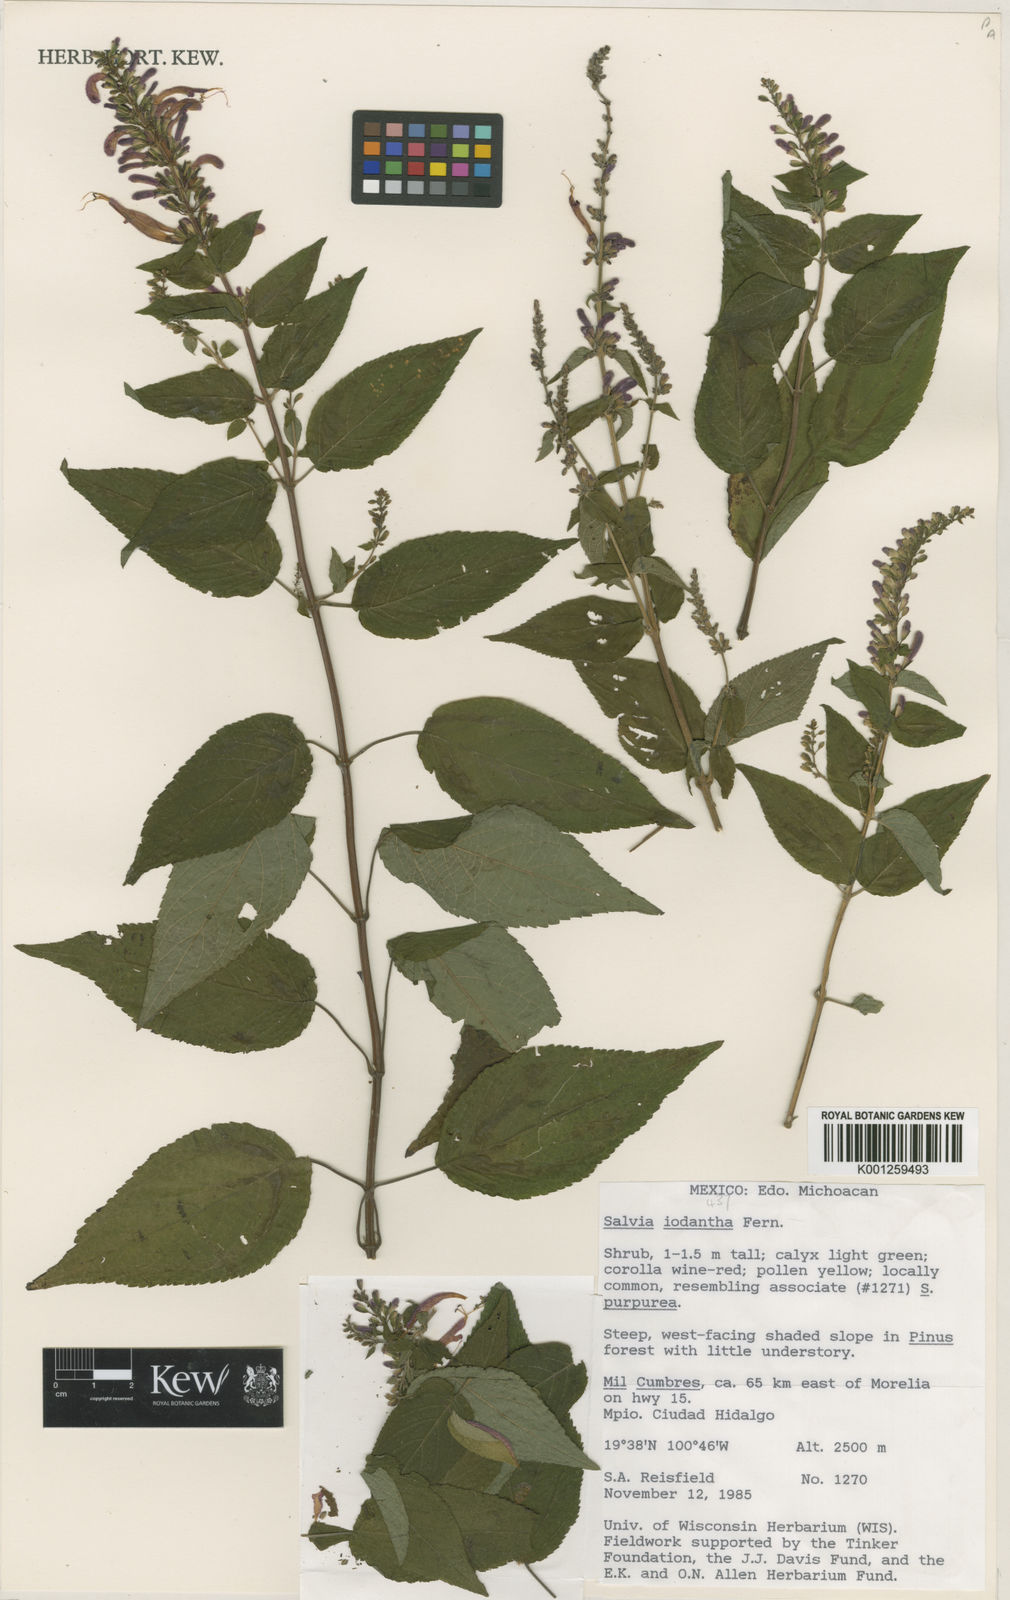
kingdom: Plantae
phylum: Tracheophyta
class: Magnoliopsida
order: Lamiales
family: Lamiaceae
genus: Salvia
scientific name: Salvia iodantha
